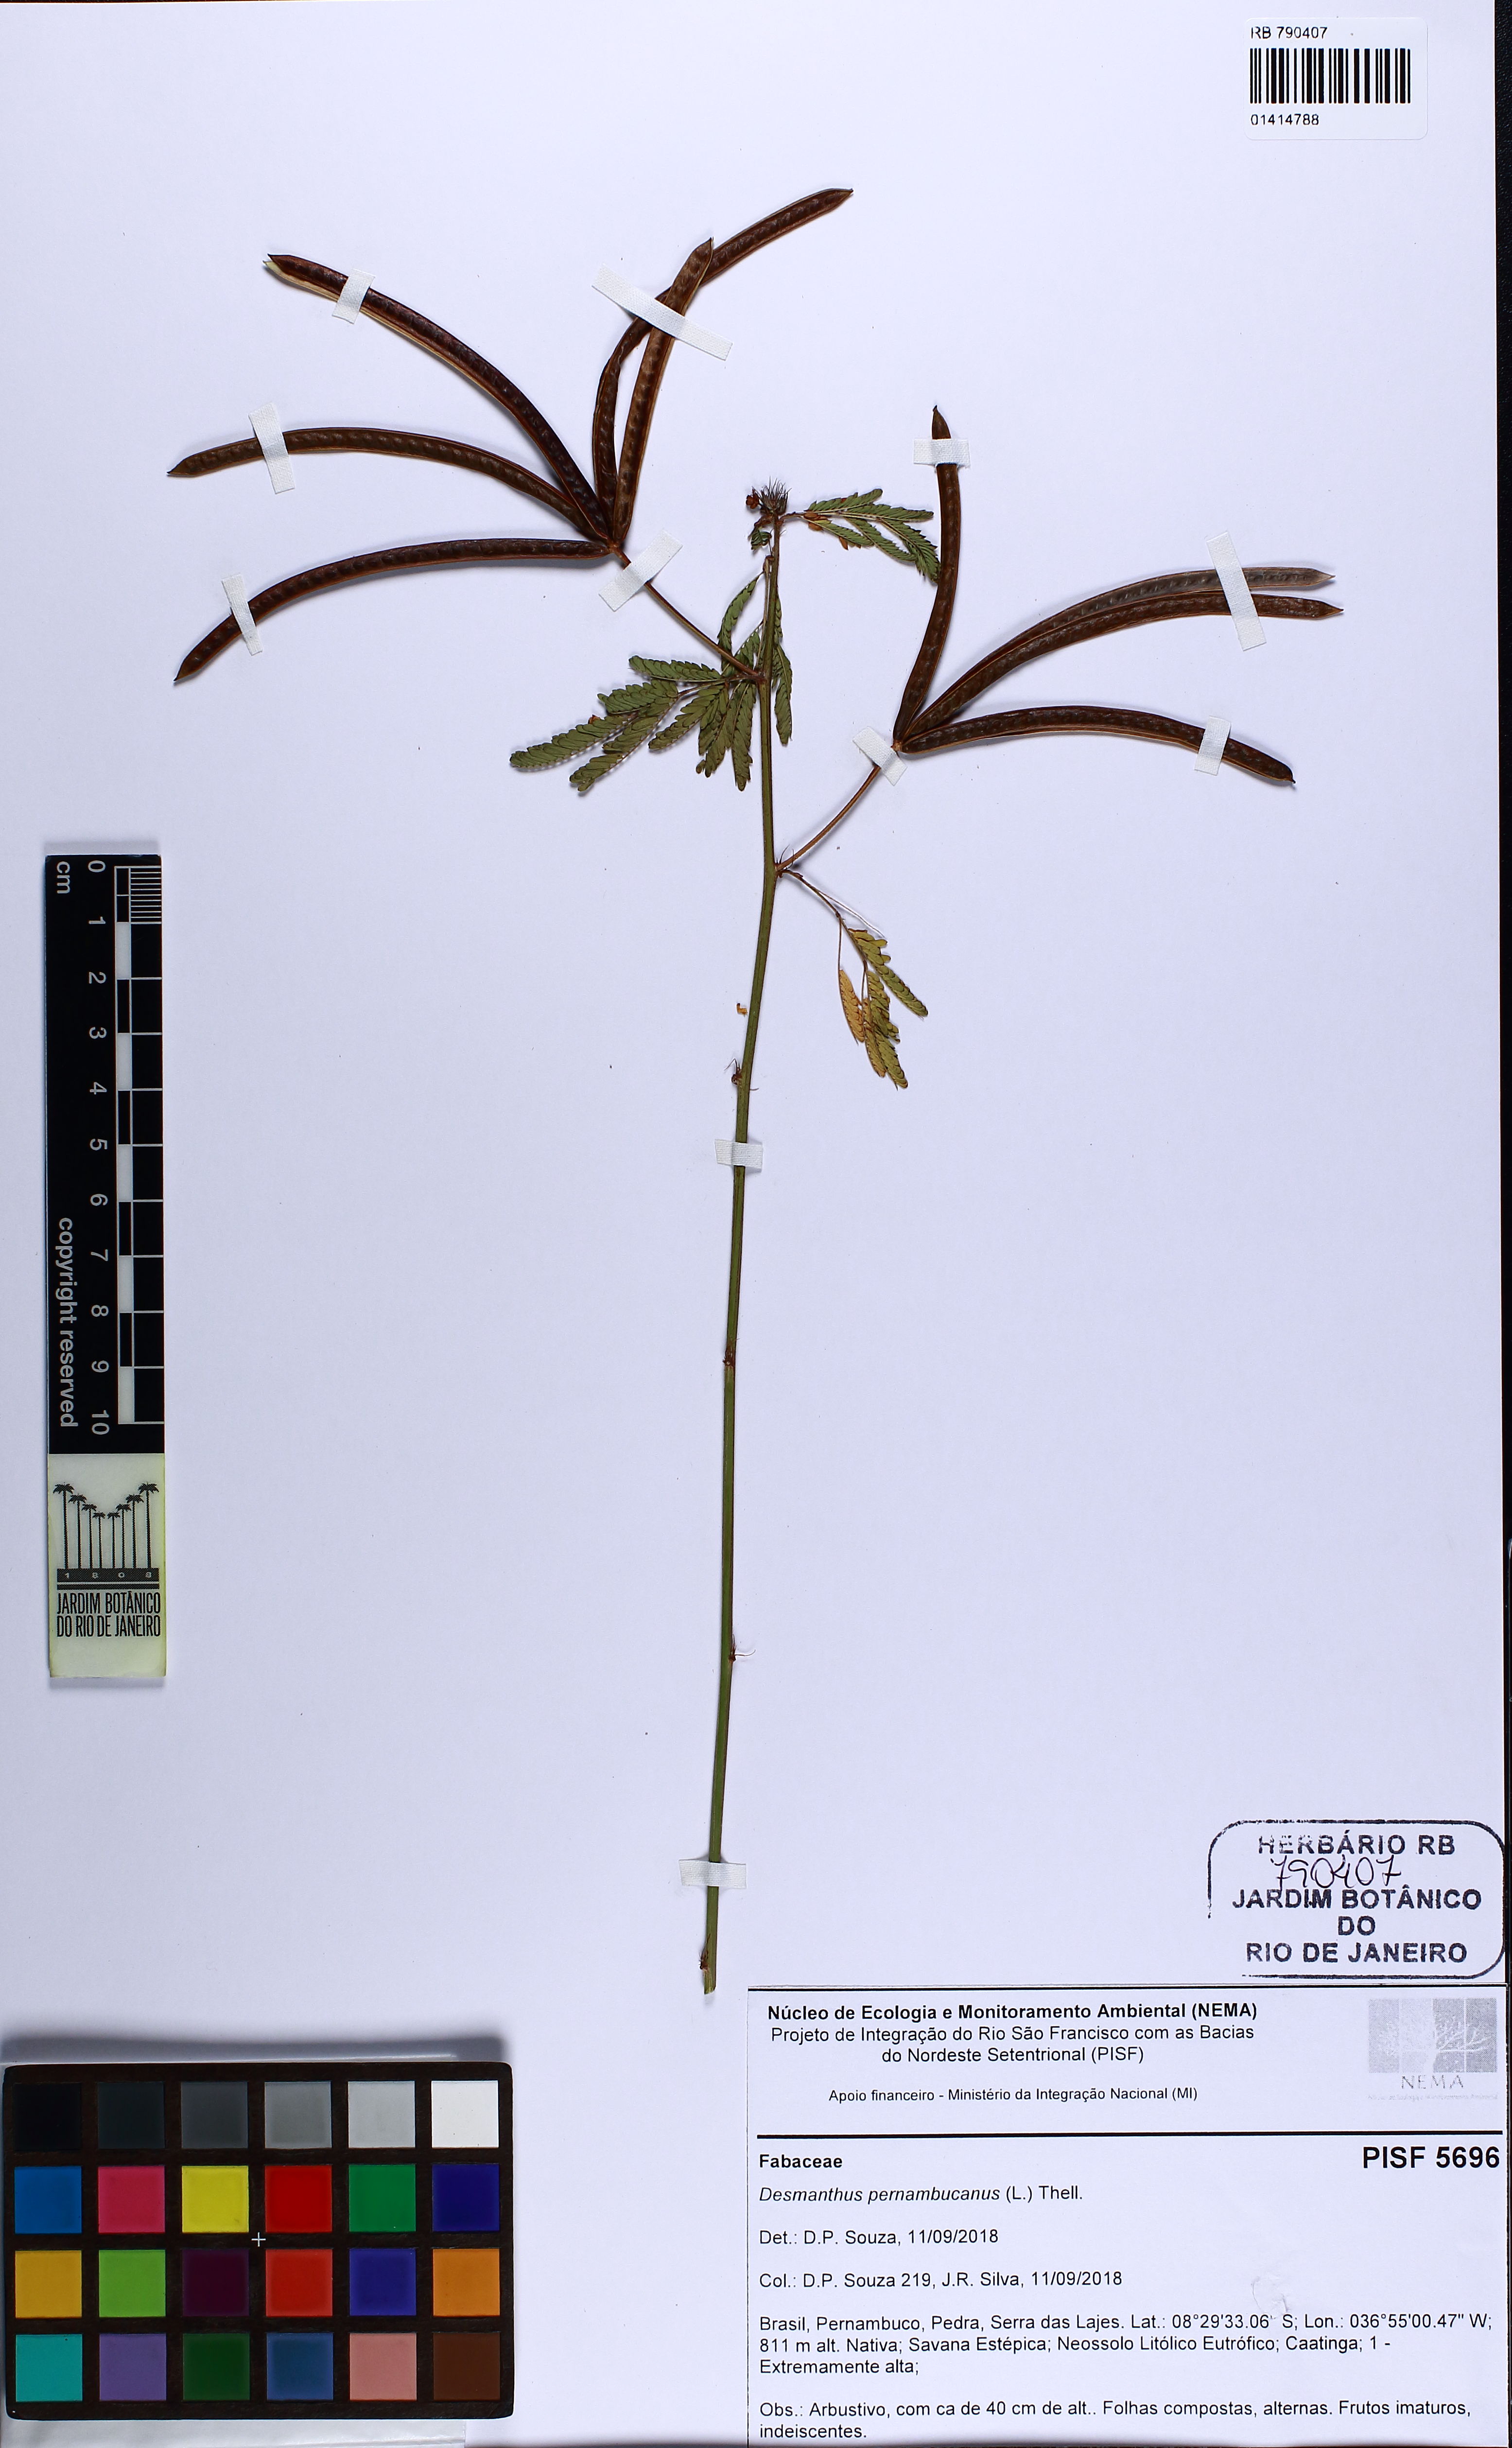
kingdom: Plantae
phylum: Tracheophyta
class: Magnoliopsida
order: Fabales
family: Fabaceae
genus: Desmanthus
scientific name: Desmanthus pernambucanus
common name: Pigeon bundleflower
